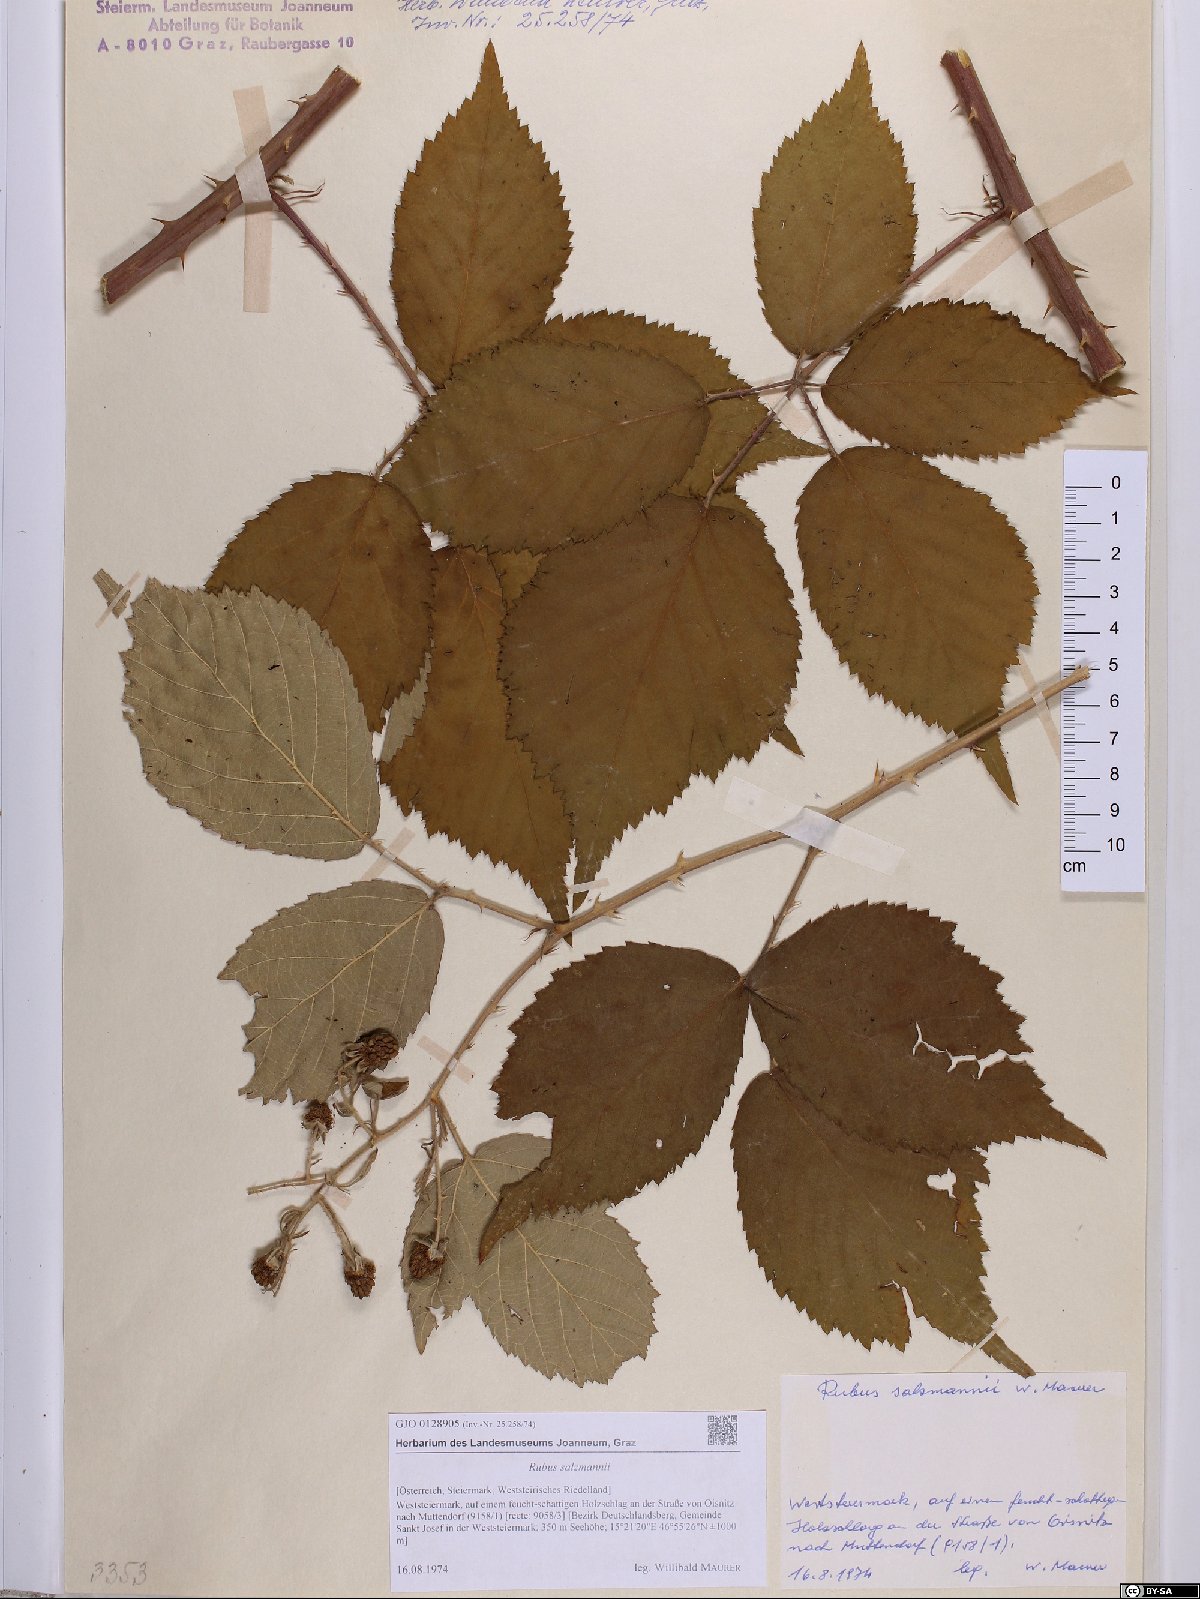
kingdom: Plantae
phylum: Tracheophyta
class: Magnoliopsida
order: Rosales
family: Rosaceae
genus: Rubus
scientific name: Rubus salzmannii
